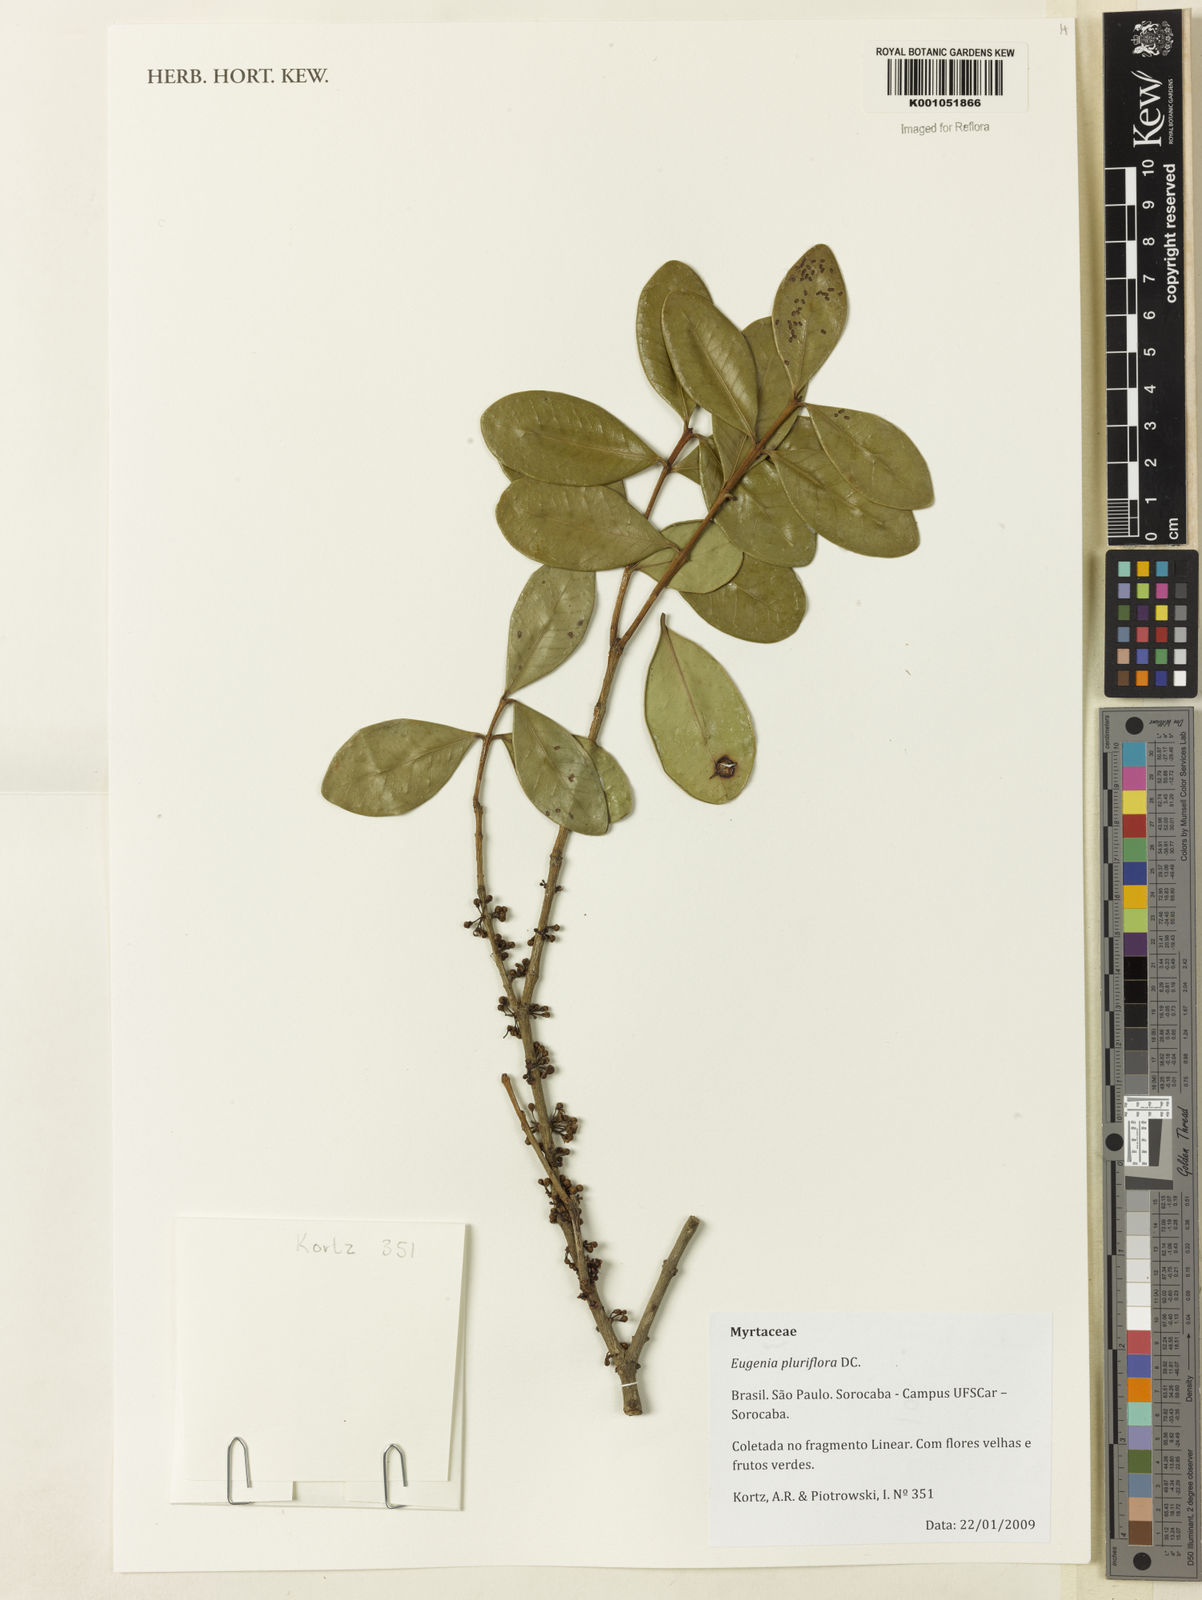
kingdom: Plantae
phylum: Tracheophyta
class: Magnoliopsida
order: Myrtales
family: Myrtaceae
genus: Eugenia
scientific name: Eugenia pluriflora
